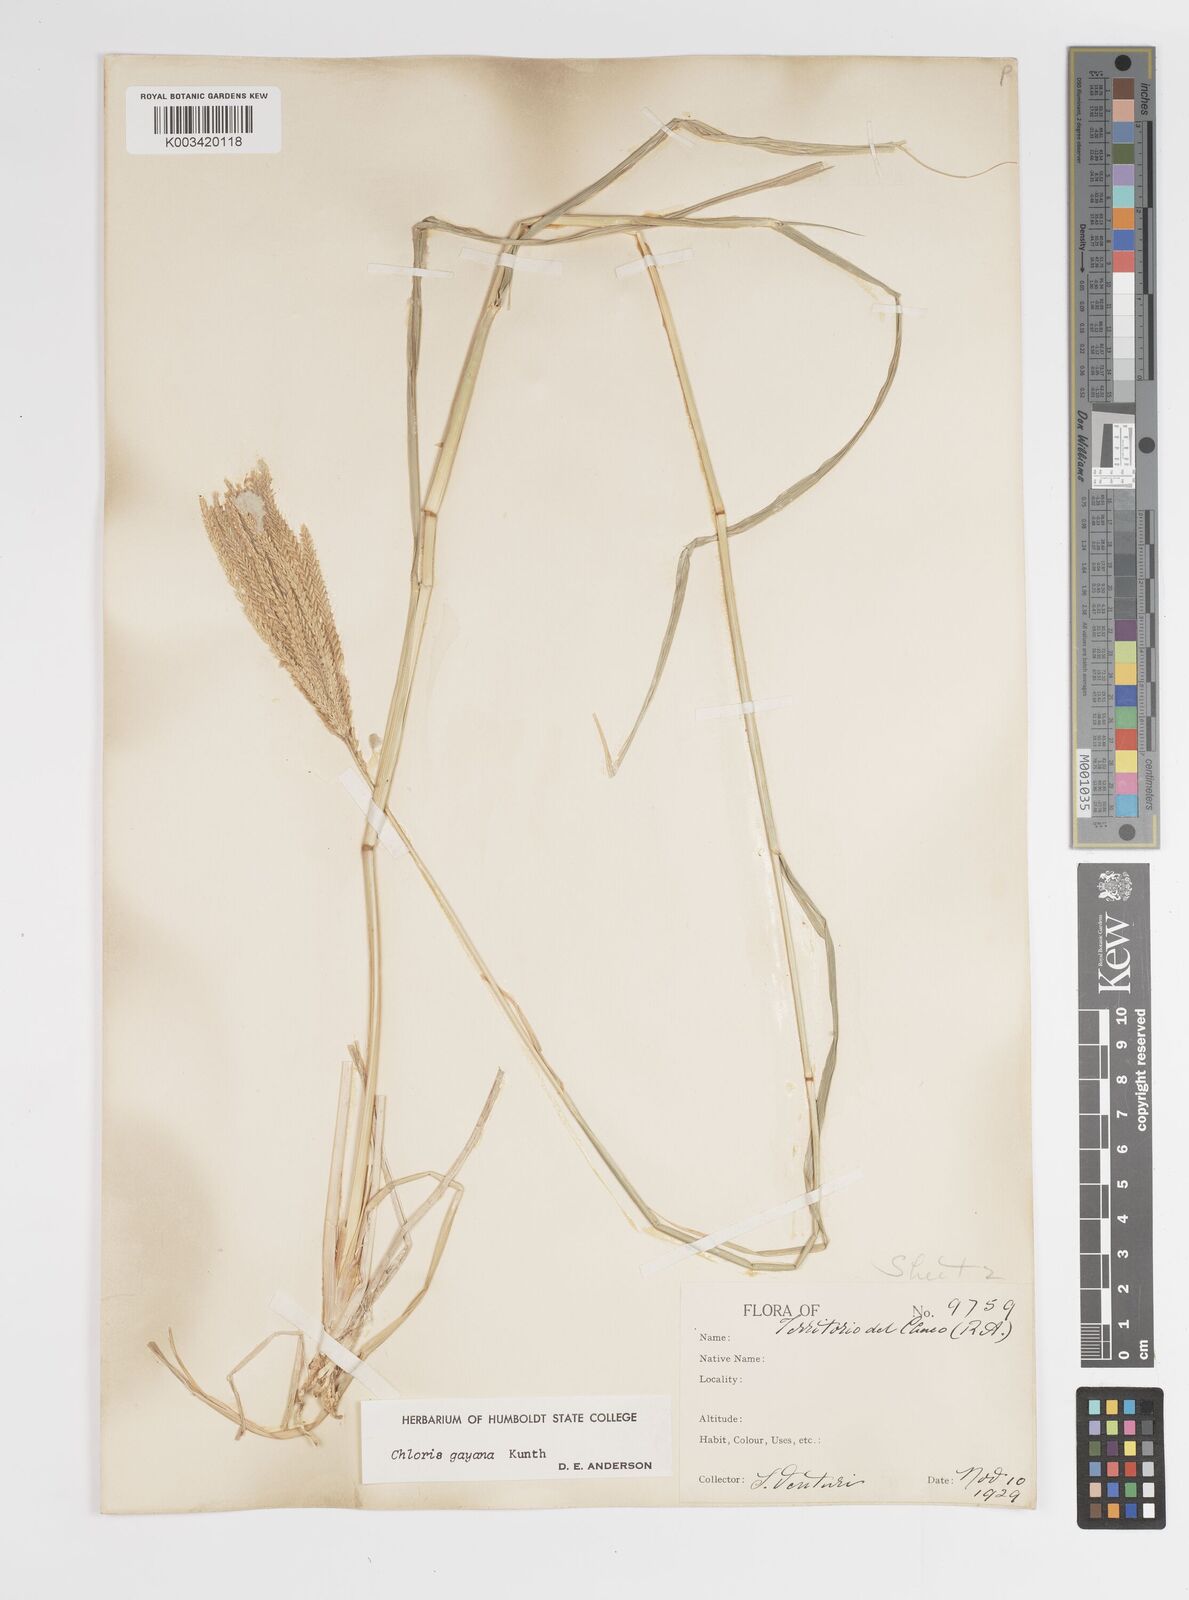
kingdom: Plantae
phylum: Tracheophyta
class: Liliopsida
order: Poales
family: Poaceae
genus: Chloris
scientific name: Chloris gayana
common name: Rhodes grass
